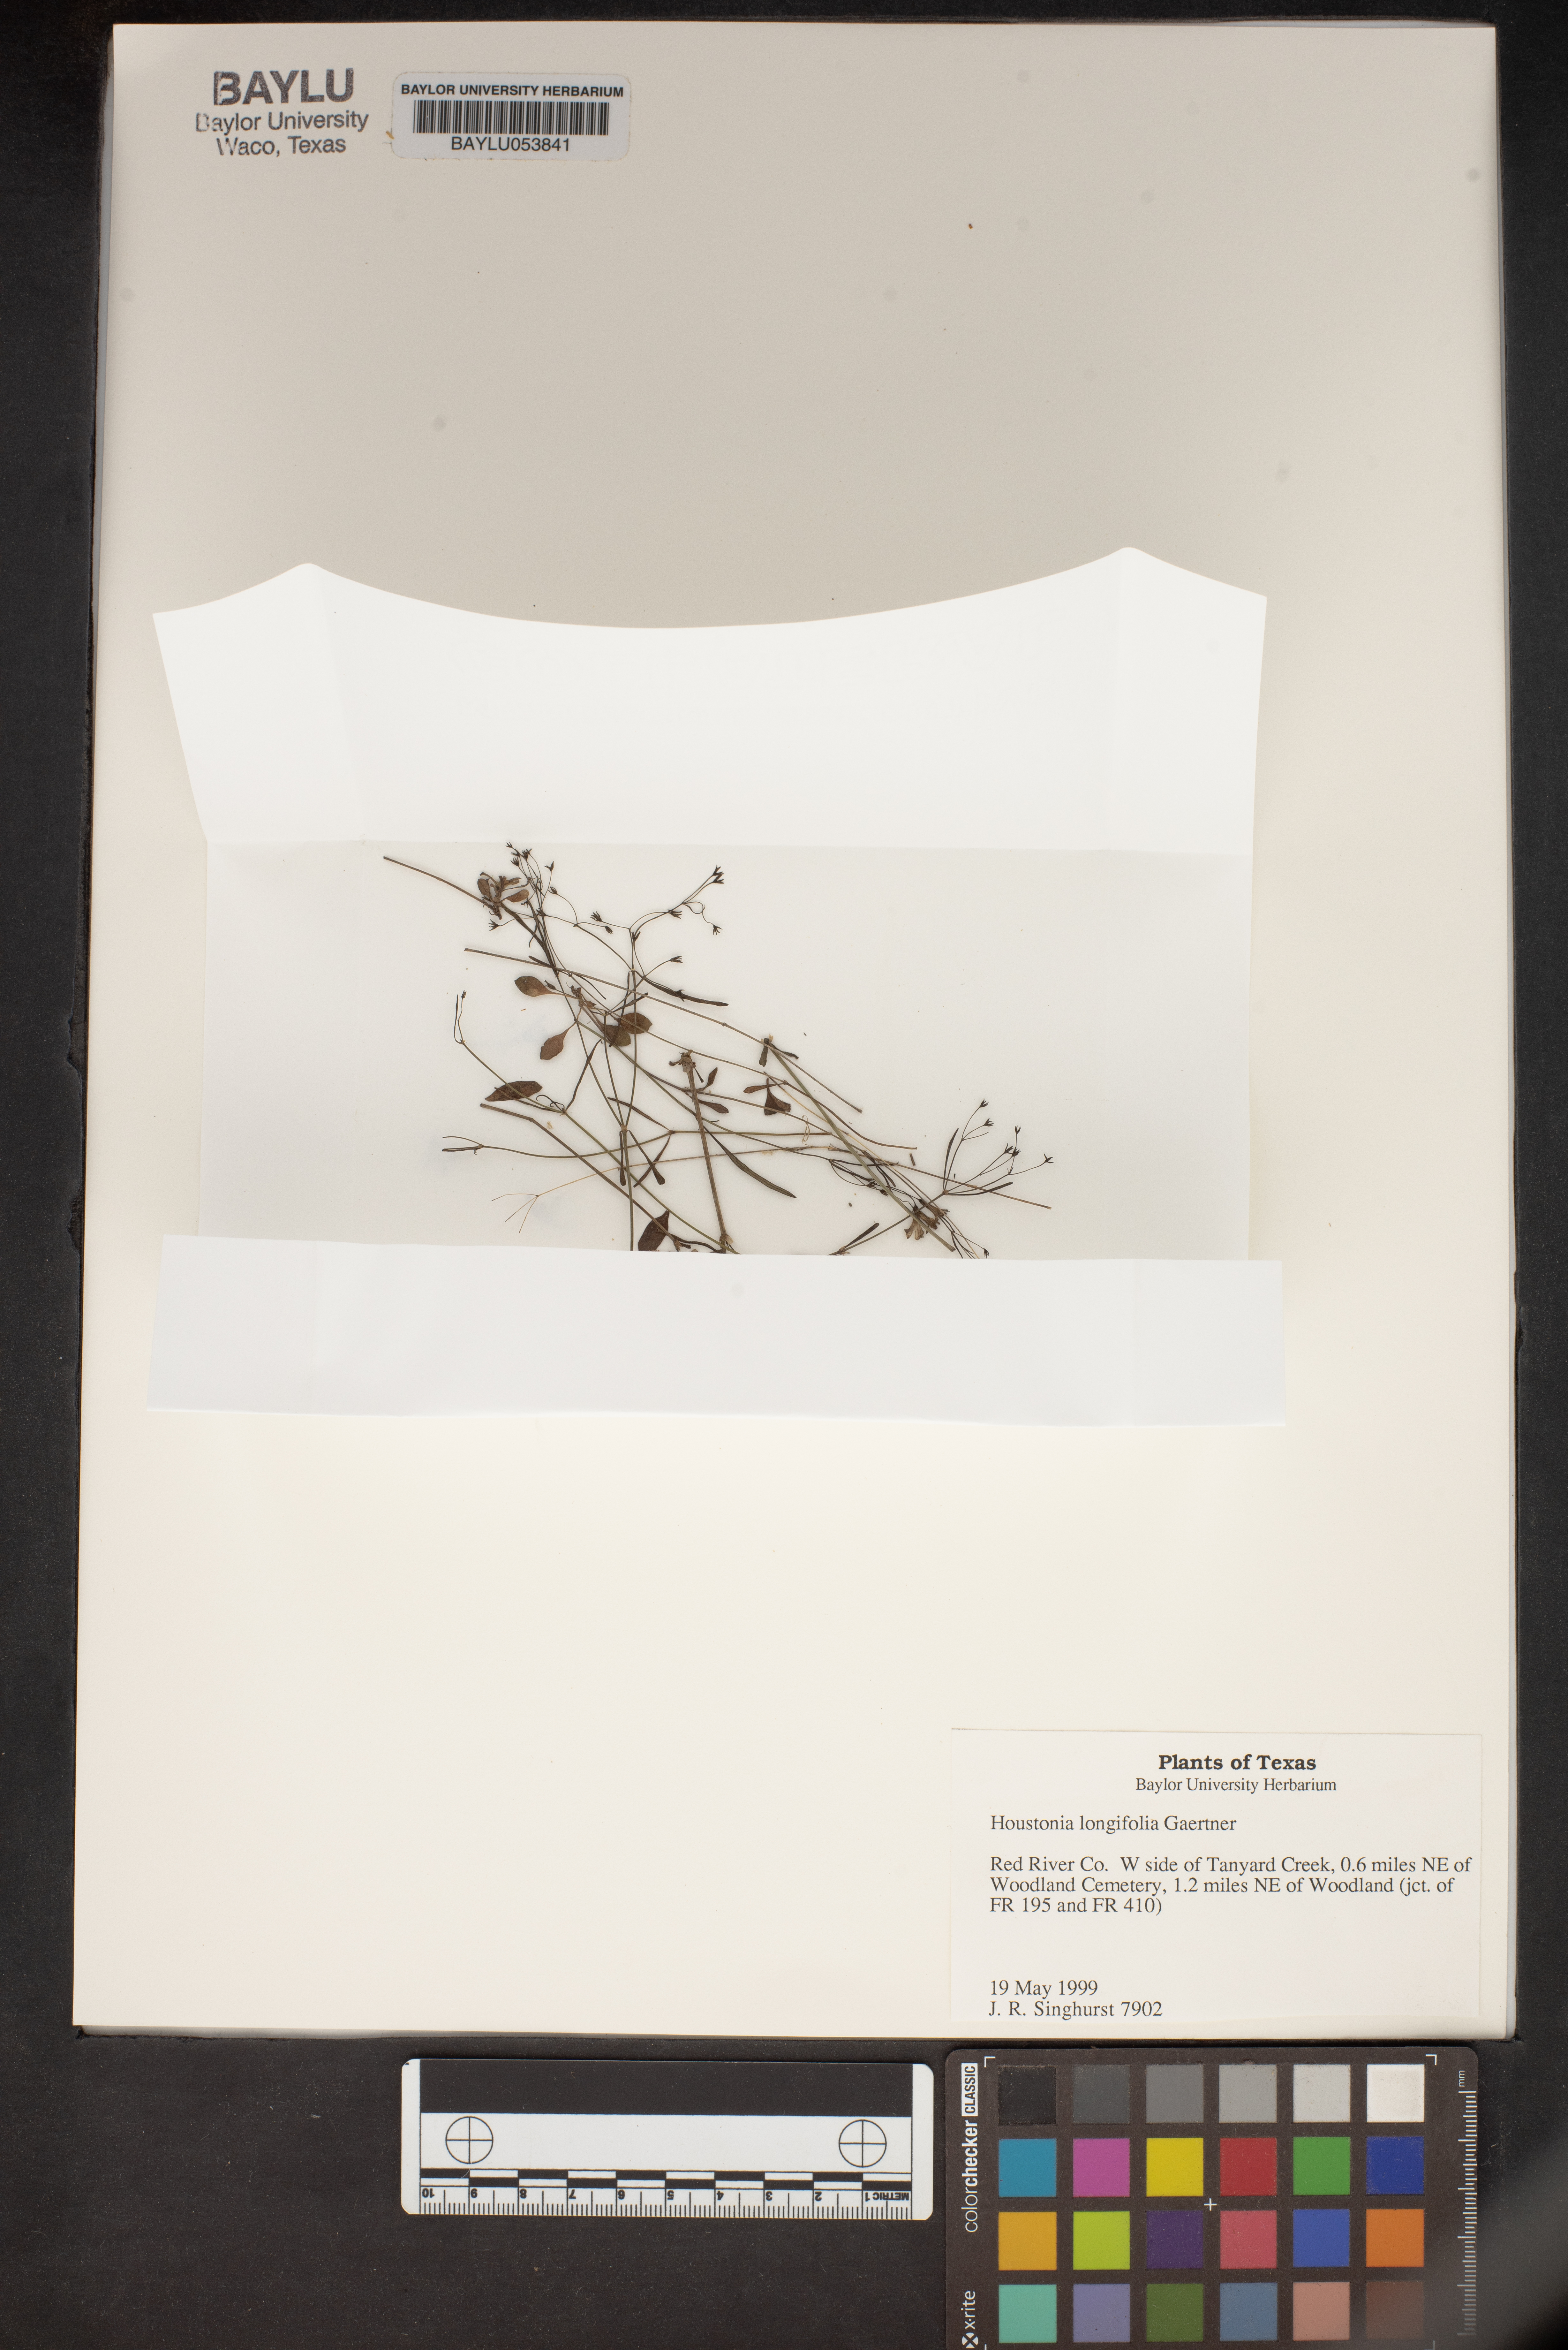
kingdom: Plantae
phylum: Tracheophyta
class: Magnoliopsida
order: Gentianales
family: Rubiaceae
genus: Houstonia
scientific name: Houstonia longifolia
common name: Long-leaved bluets
